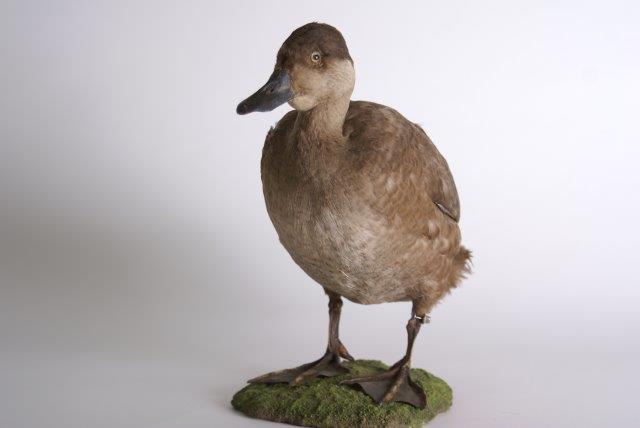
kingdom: Animalia
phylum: Chordata
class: Aves
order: Anseriformes
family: Anatidae
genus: Melanitta
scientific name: Melanitta nigra
